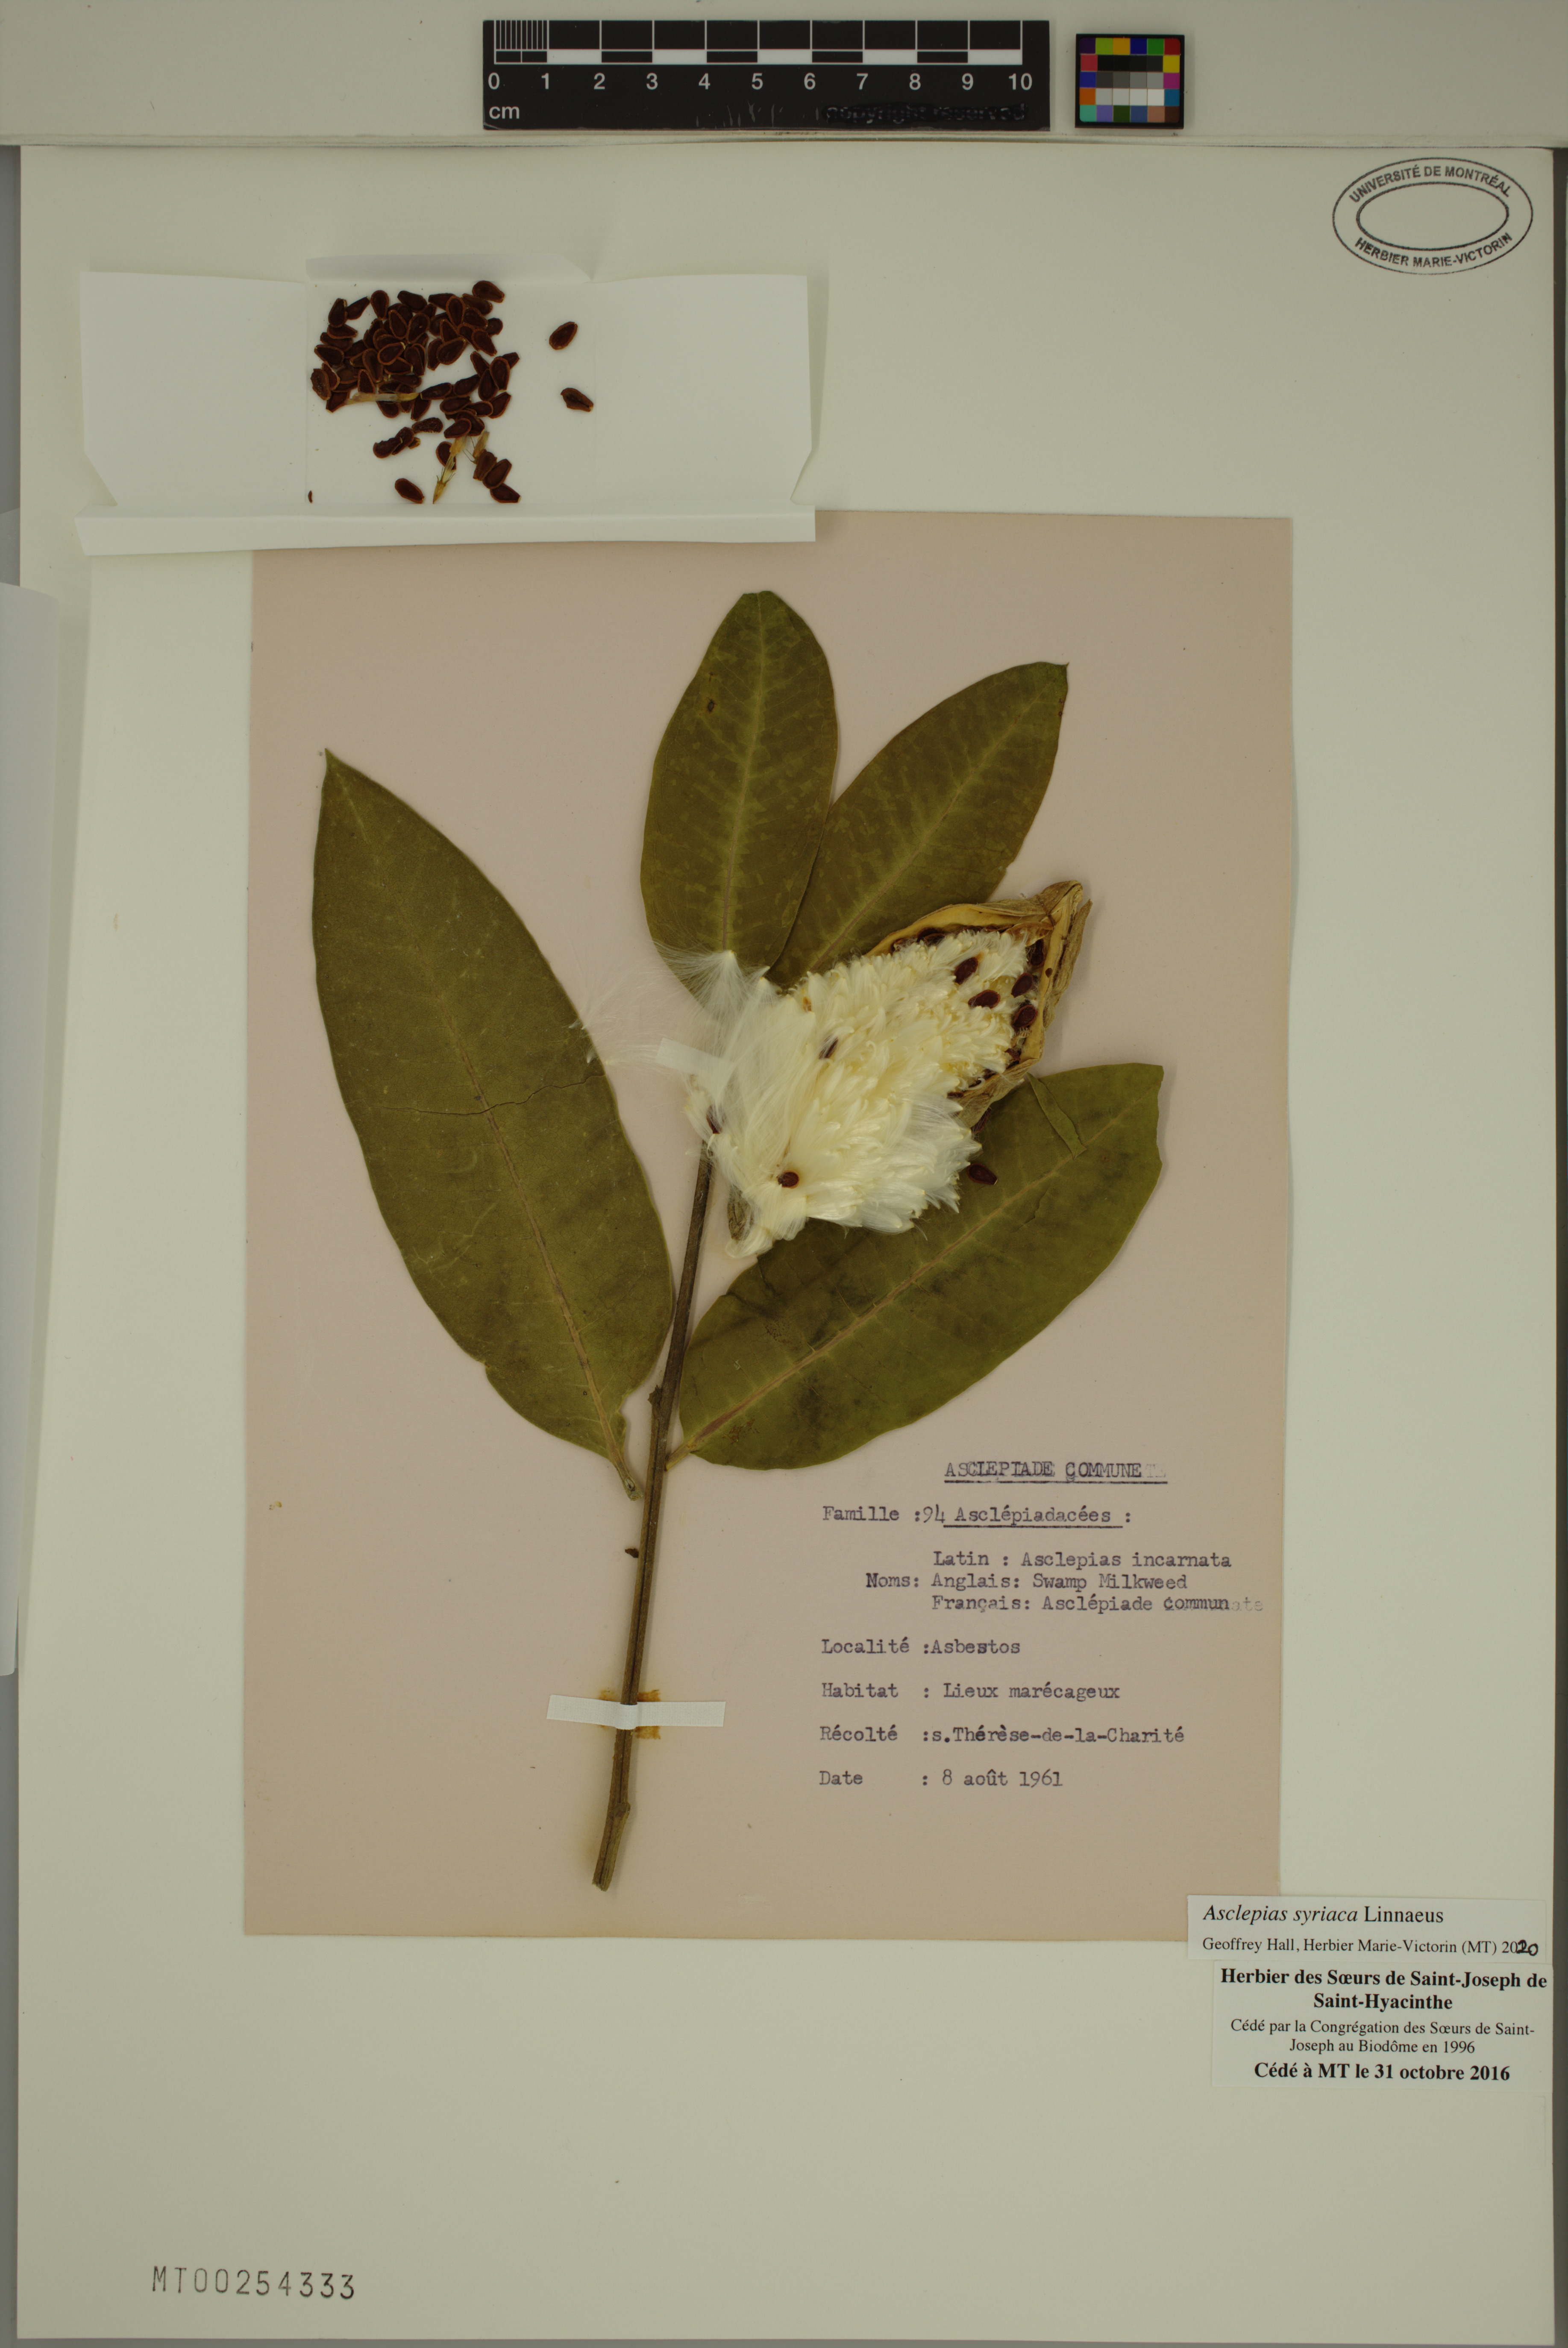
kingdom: Plantae
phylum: Tracheophyta
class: Magnoliopsida
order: Gentianales
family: Apocynaceae
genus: Asclepias
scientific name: Asclepias syriaca
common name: Common milkweed
